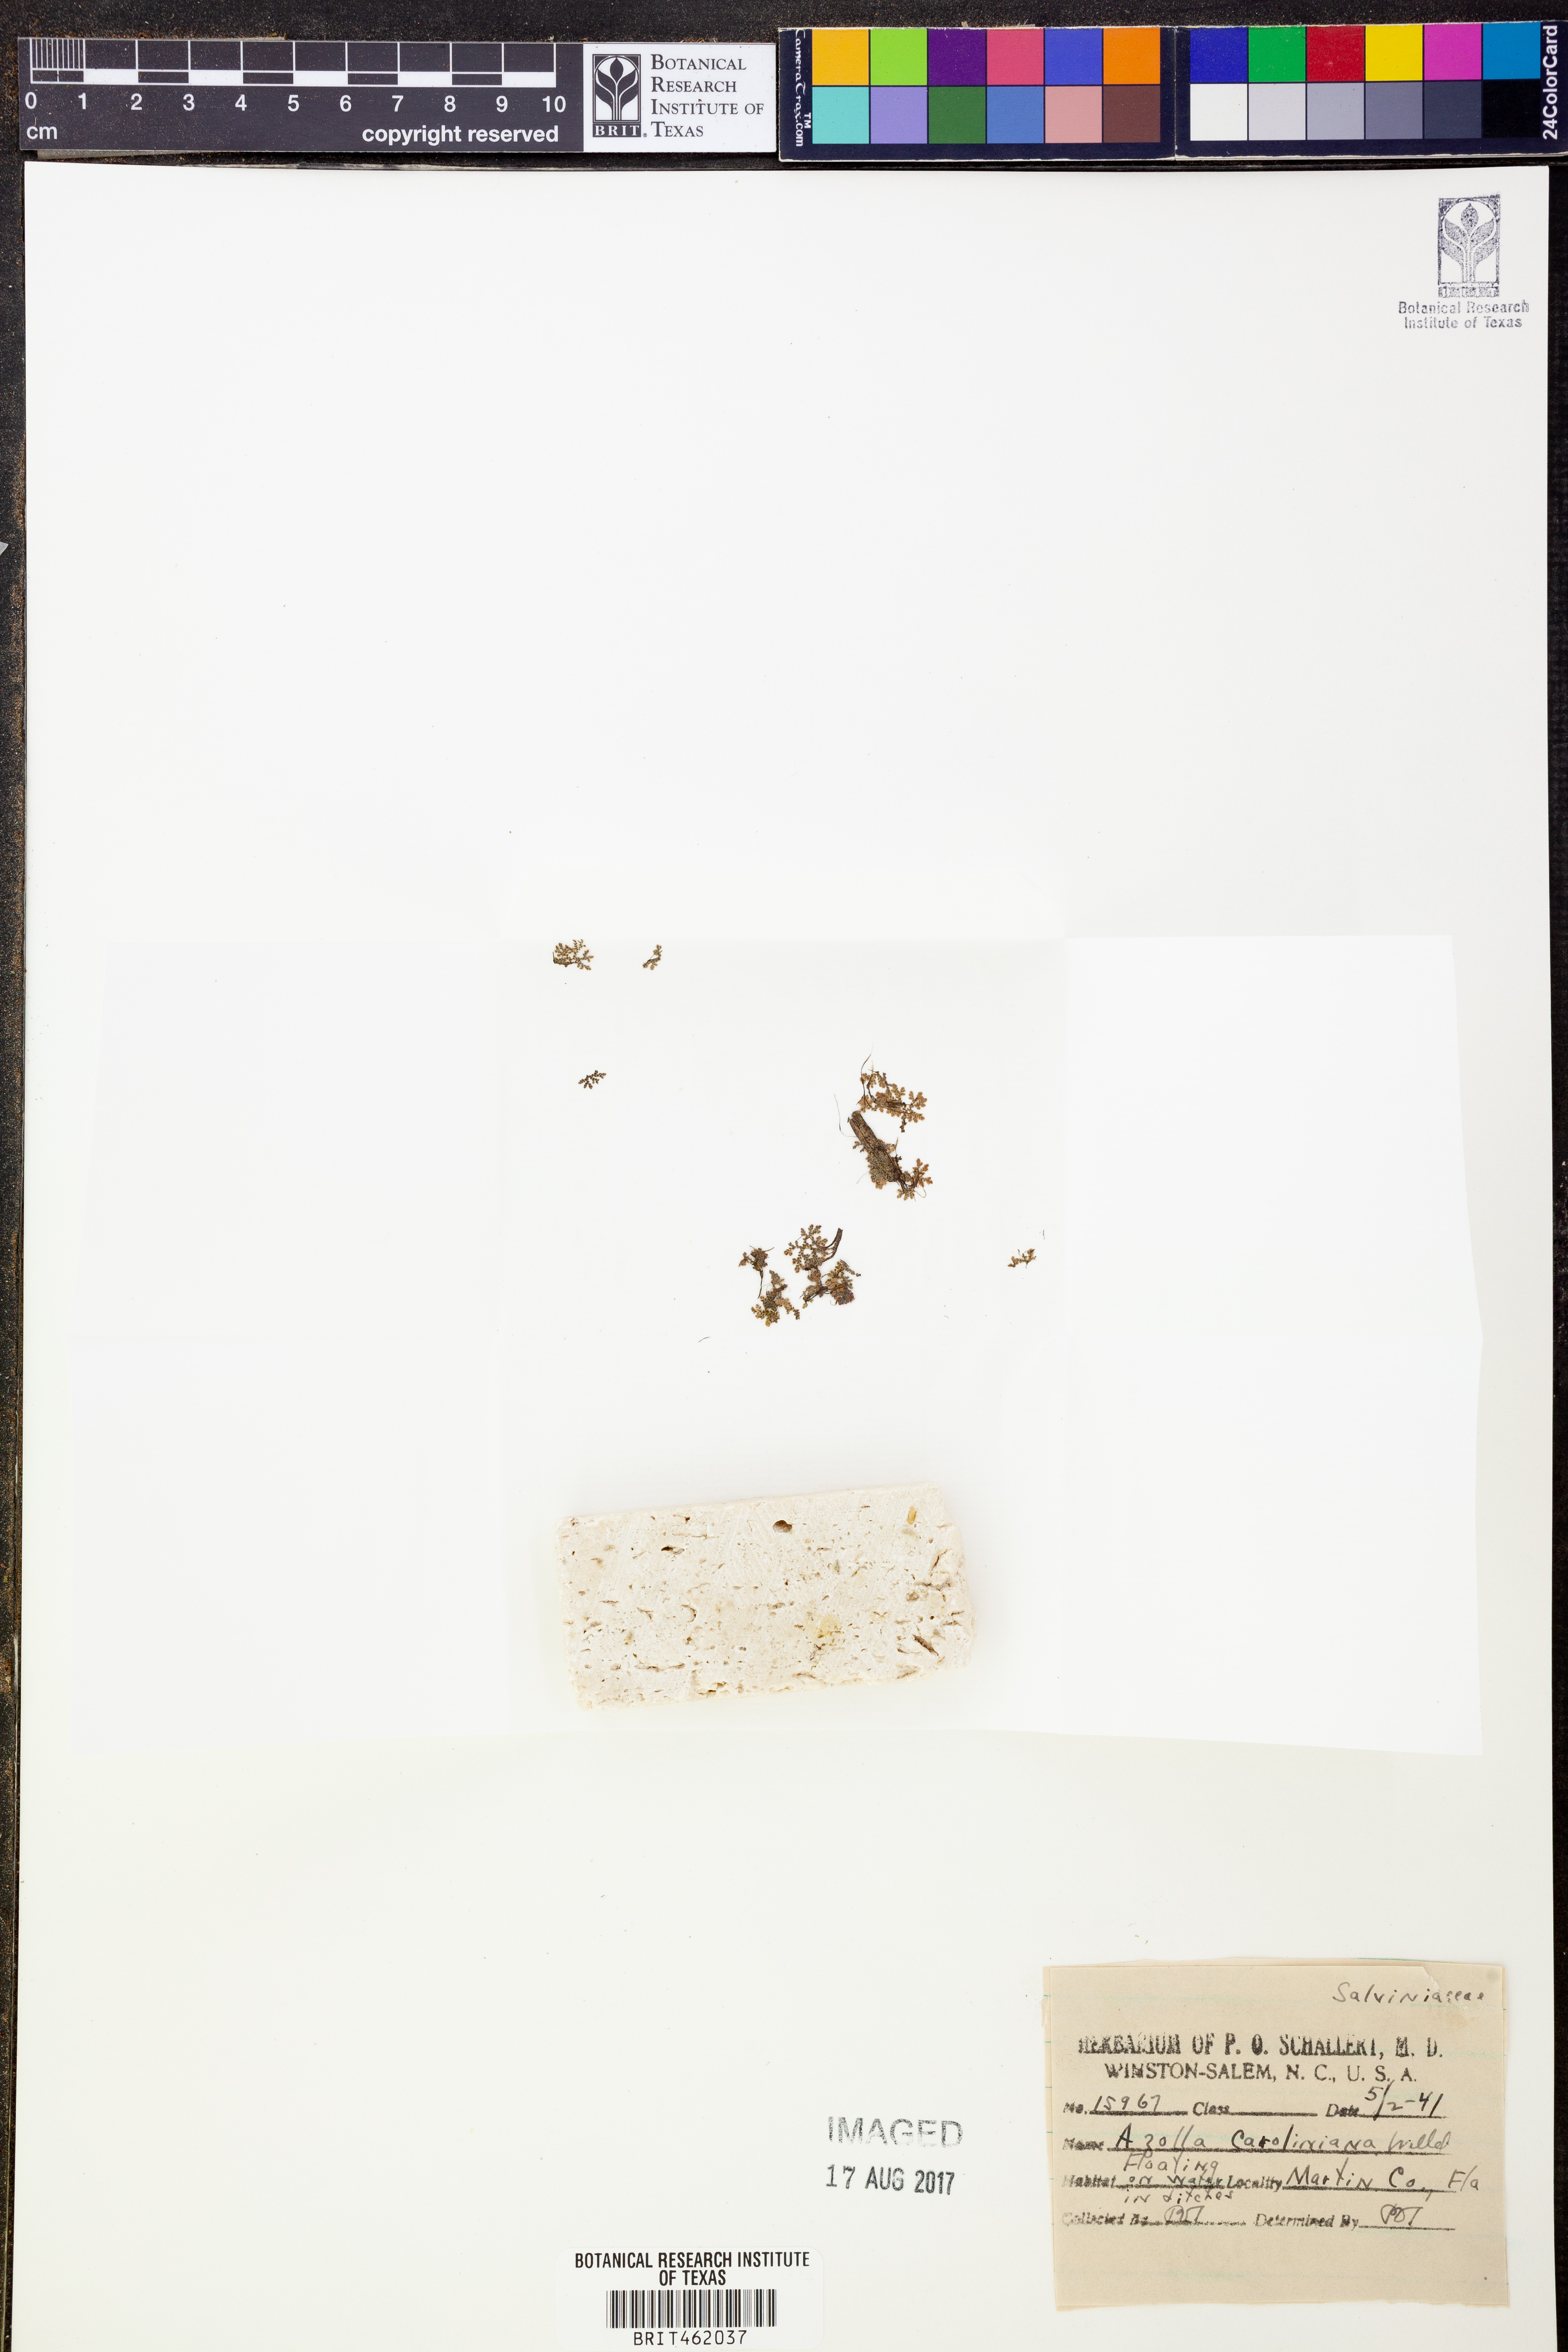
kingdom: Plantae
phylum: Tracheophyta
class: Polypodiopsida
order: Salviniales
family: Salviniaceae
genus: Azolla
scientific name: Azolla caroliniana
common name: Carolina mosquitofern
